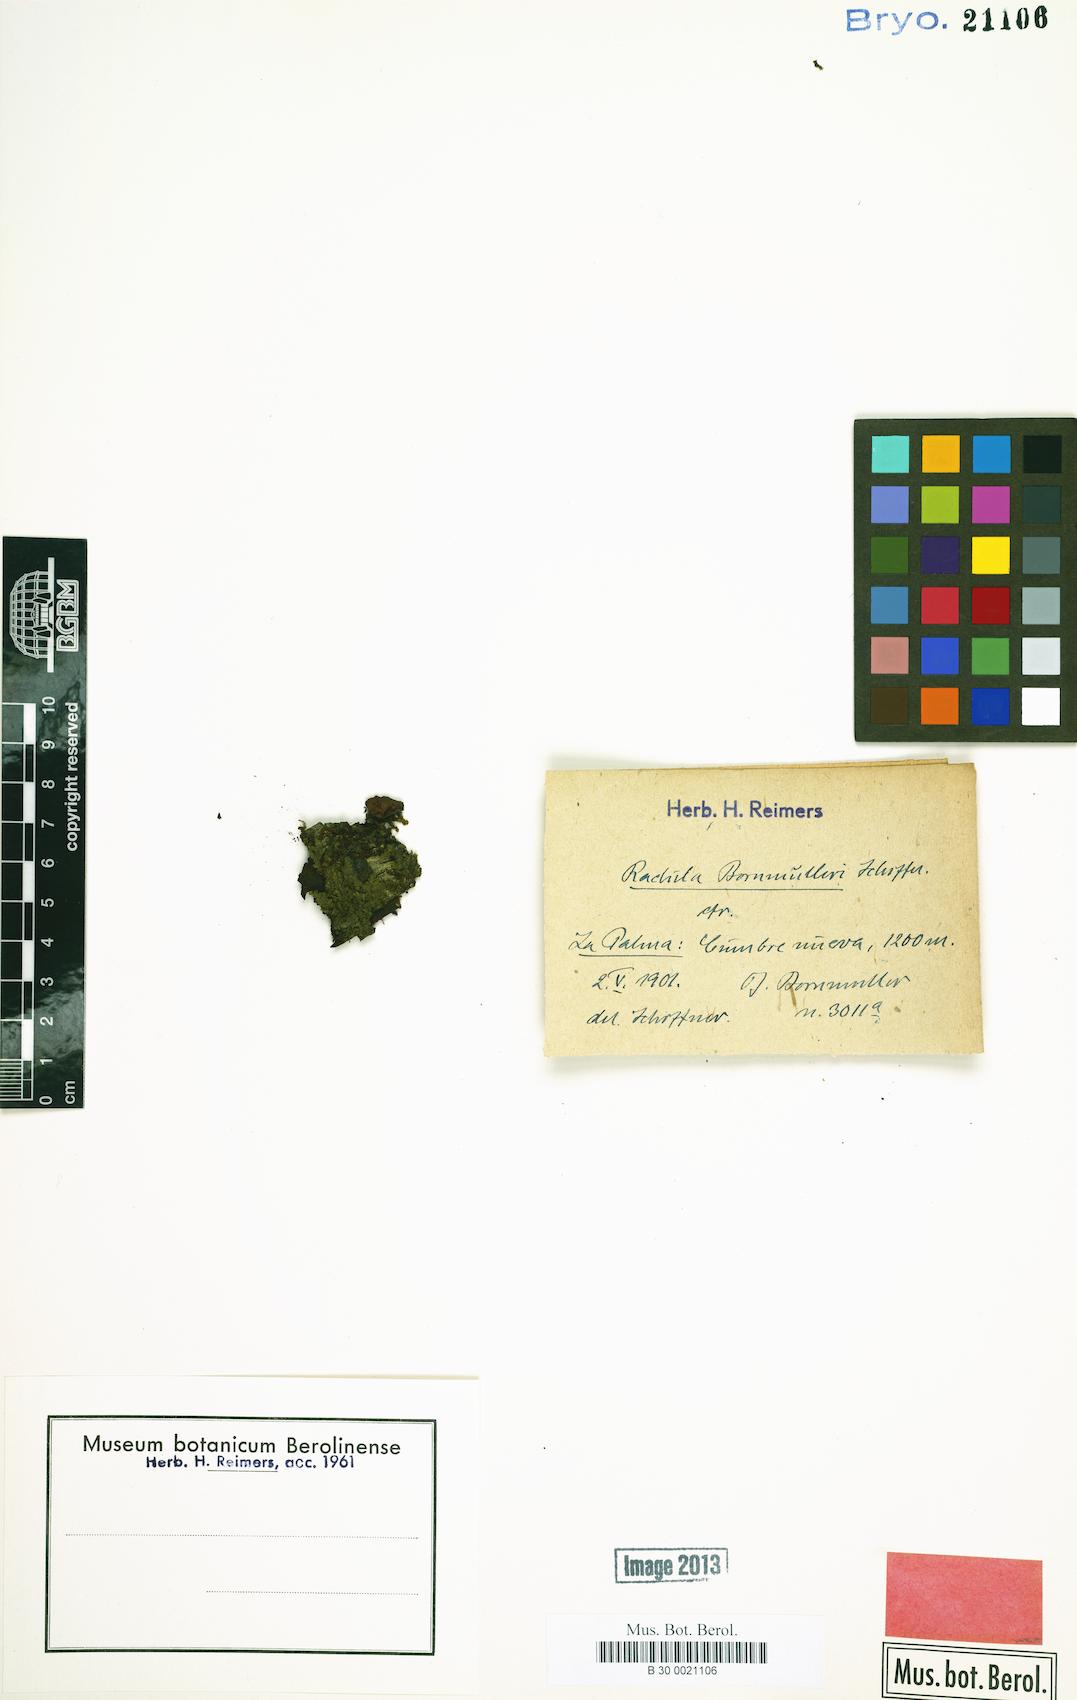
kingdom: Plantae
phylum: Marchantiophyta
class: Jungermanniopsida
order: Porellales
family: Radulaceae
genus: Radula
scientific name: Radula lindenbergiana
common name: Lindenberg's scalewort
